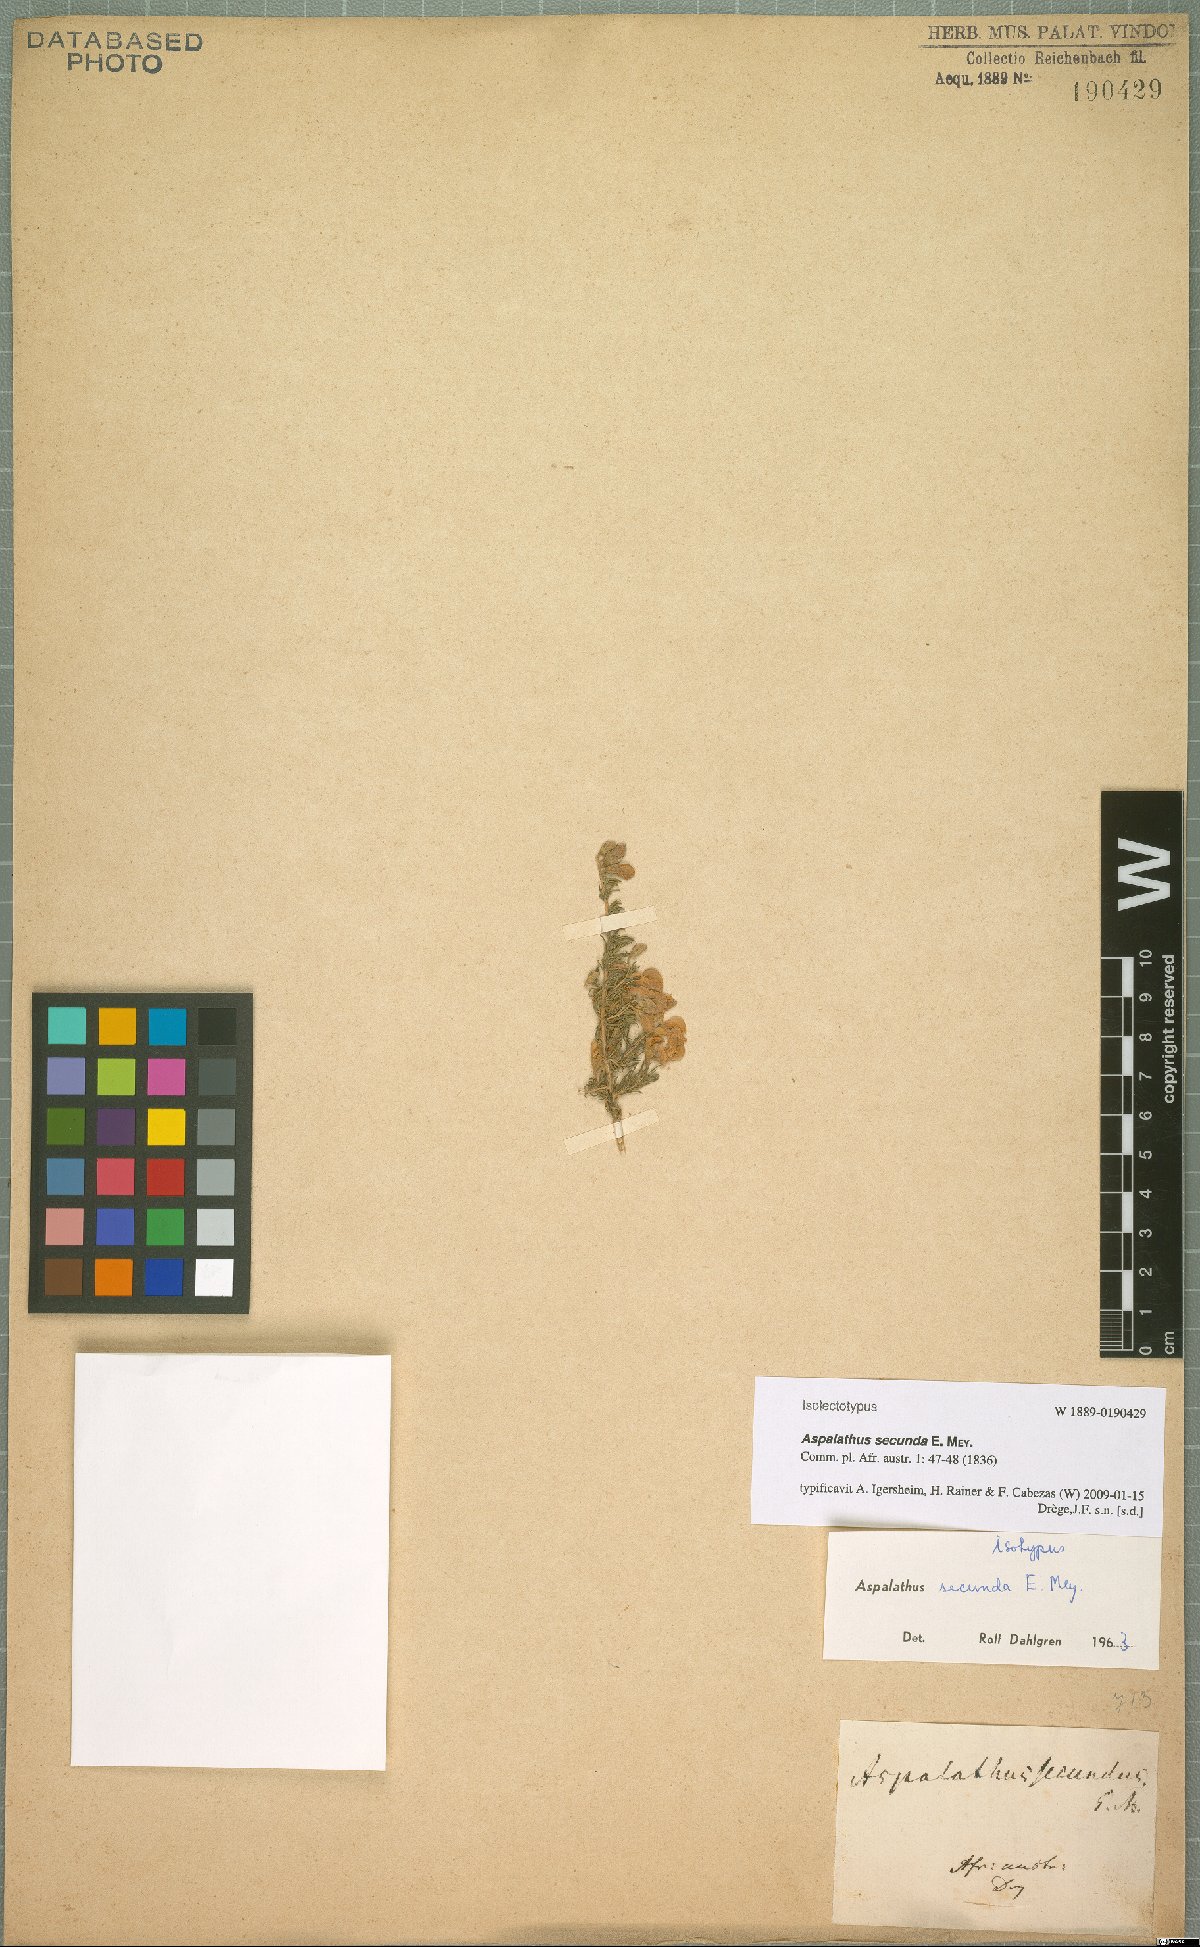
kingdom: Plantae
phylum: Tracheophyta
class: Magnoliopsida
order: Fabales
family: Fabaceae
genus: Aspalathus
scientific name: Aspalathus secunda
